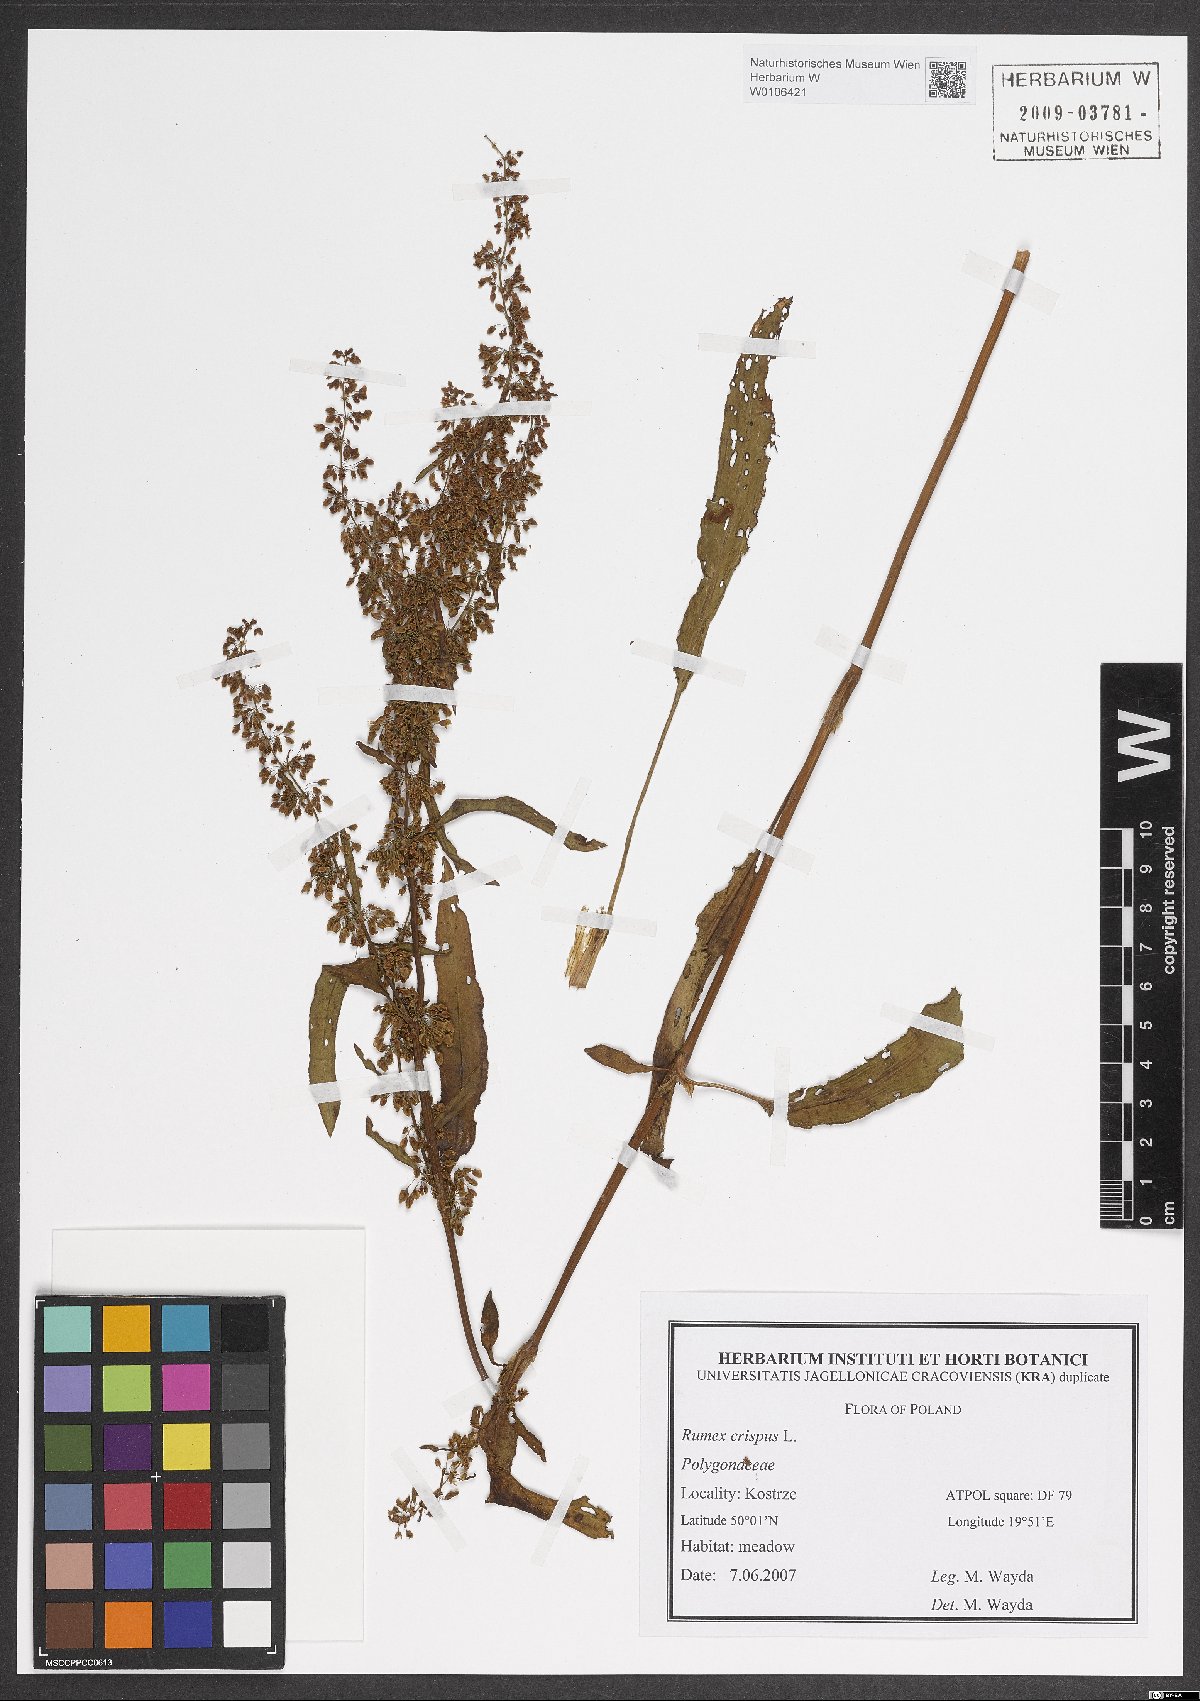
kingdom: Plantae
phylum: Tracheophyta
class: Magnoliopsida
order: Caryophyllales
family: Polygonaceae
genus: Rumex
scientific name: Rumex crispus
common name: Curled dock
